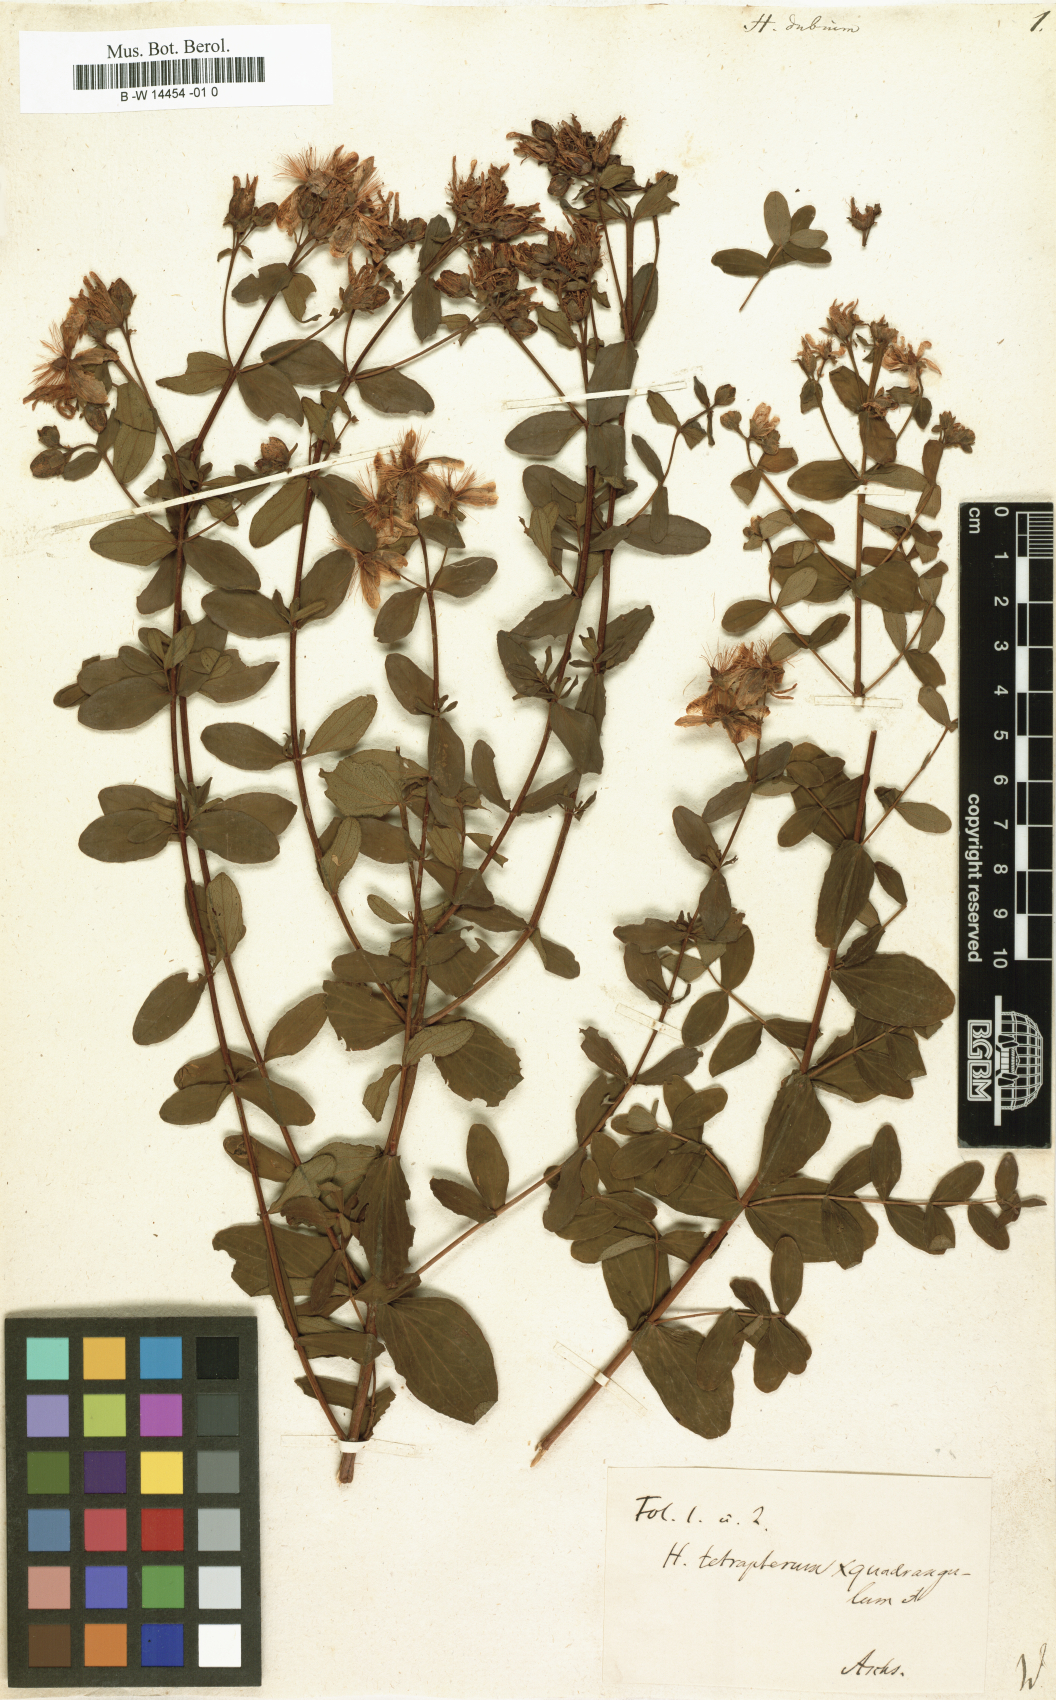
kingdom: Plantae
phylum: Tracheophyta
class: Magnoliopsida
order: Malpighiales
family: Hypericaceae
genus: Hypericum
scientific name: Hypericum dubium
